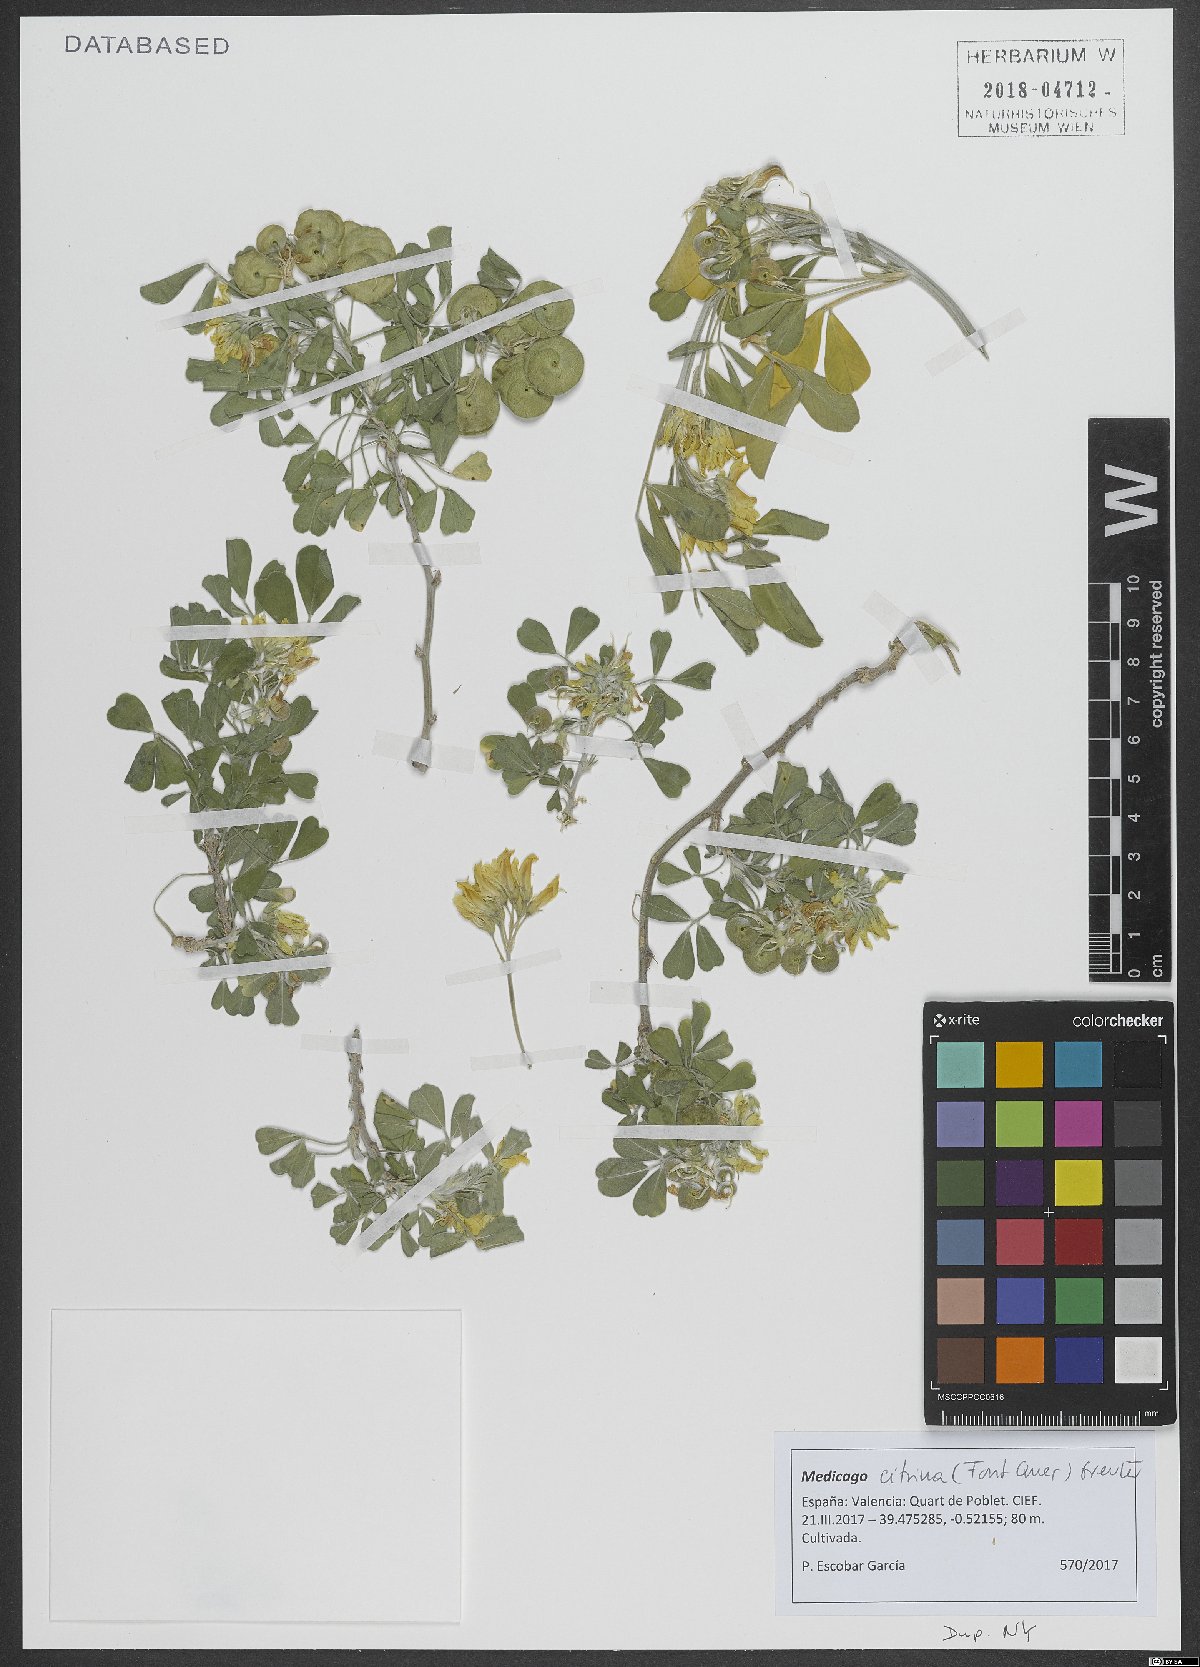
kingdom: Plantae
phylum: Tracheophyta
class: Magnoliopsida
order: Fabales
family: Fabaceae
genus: Medicago
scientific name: Medicago arborea
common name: Moon trefoil
